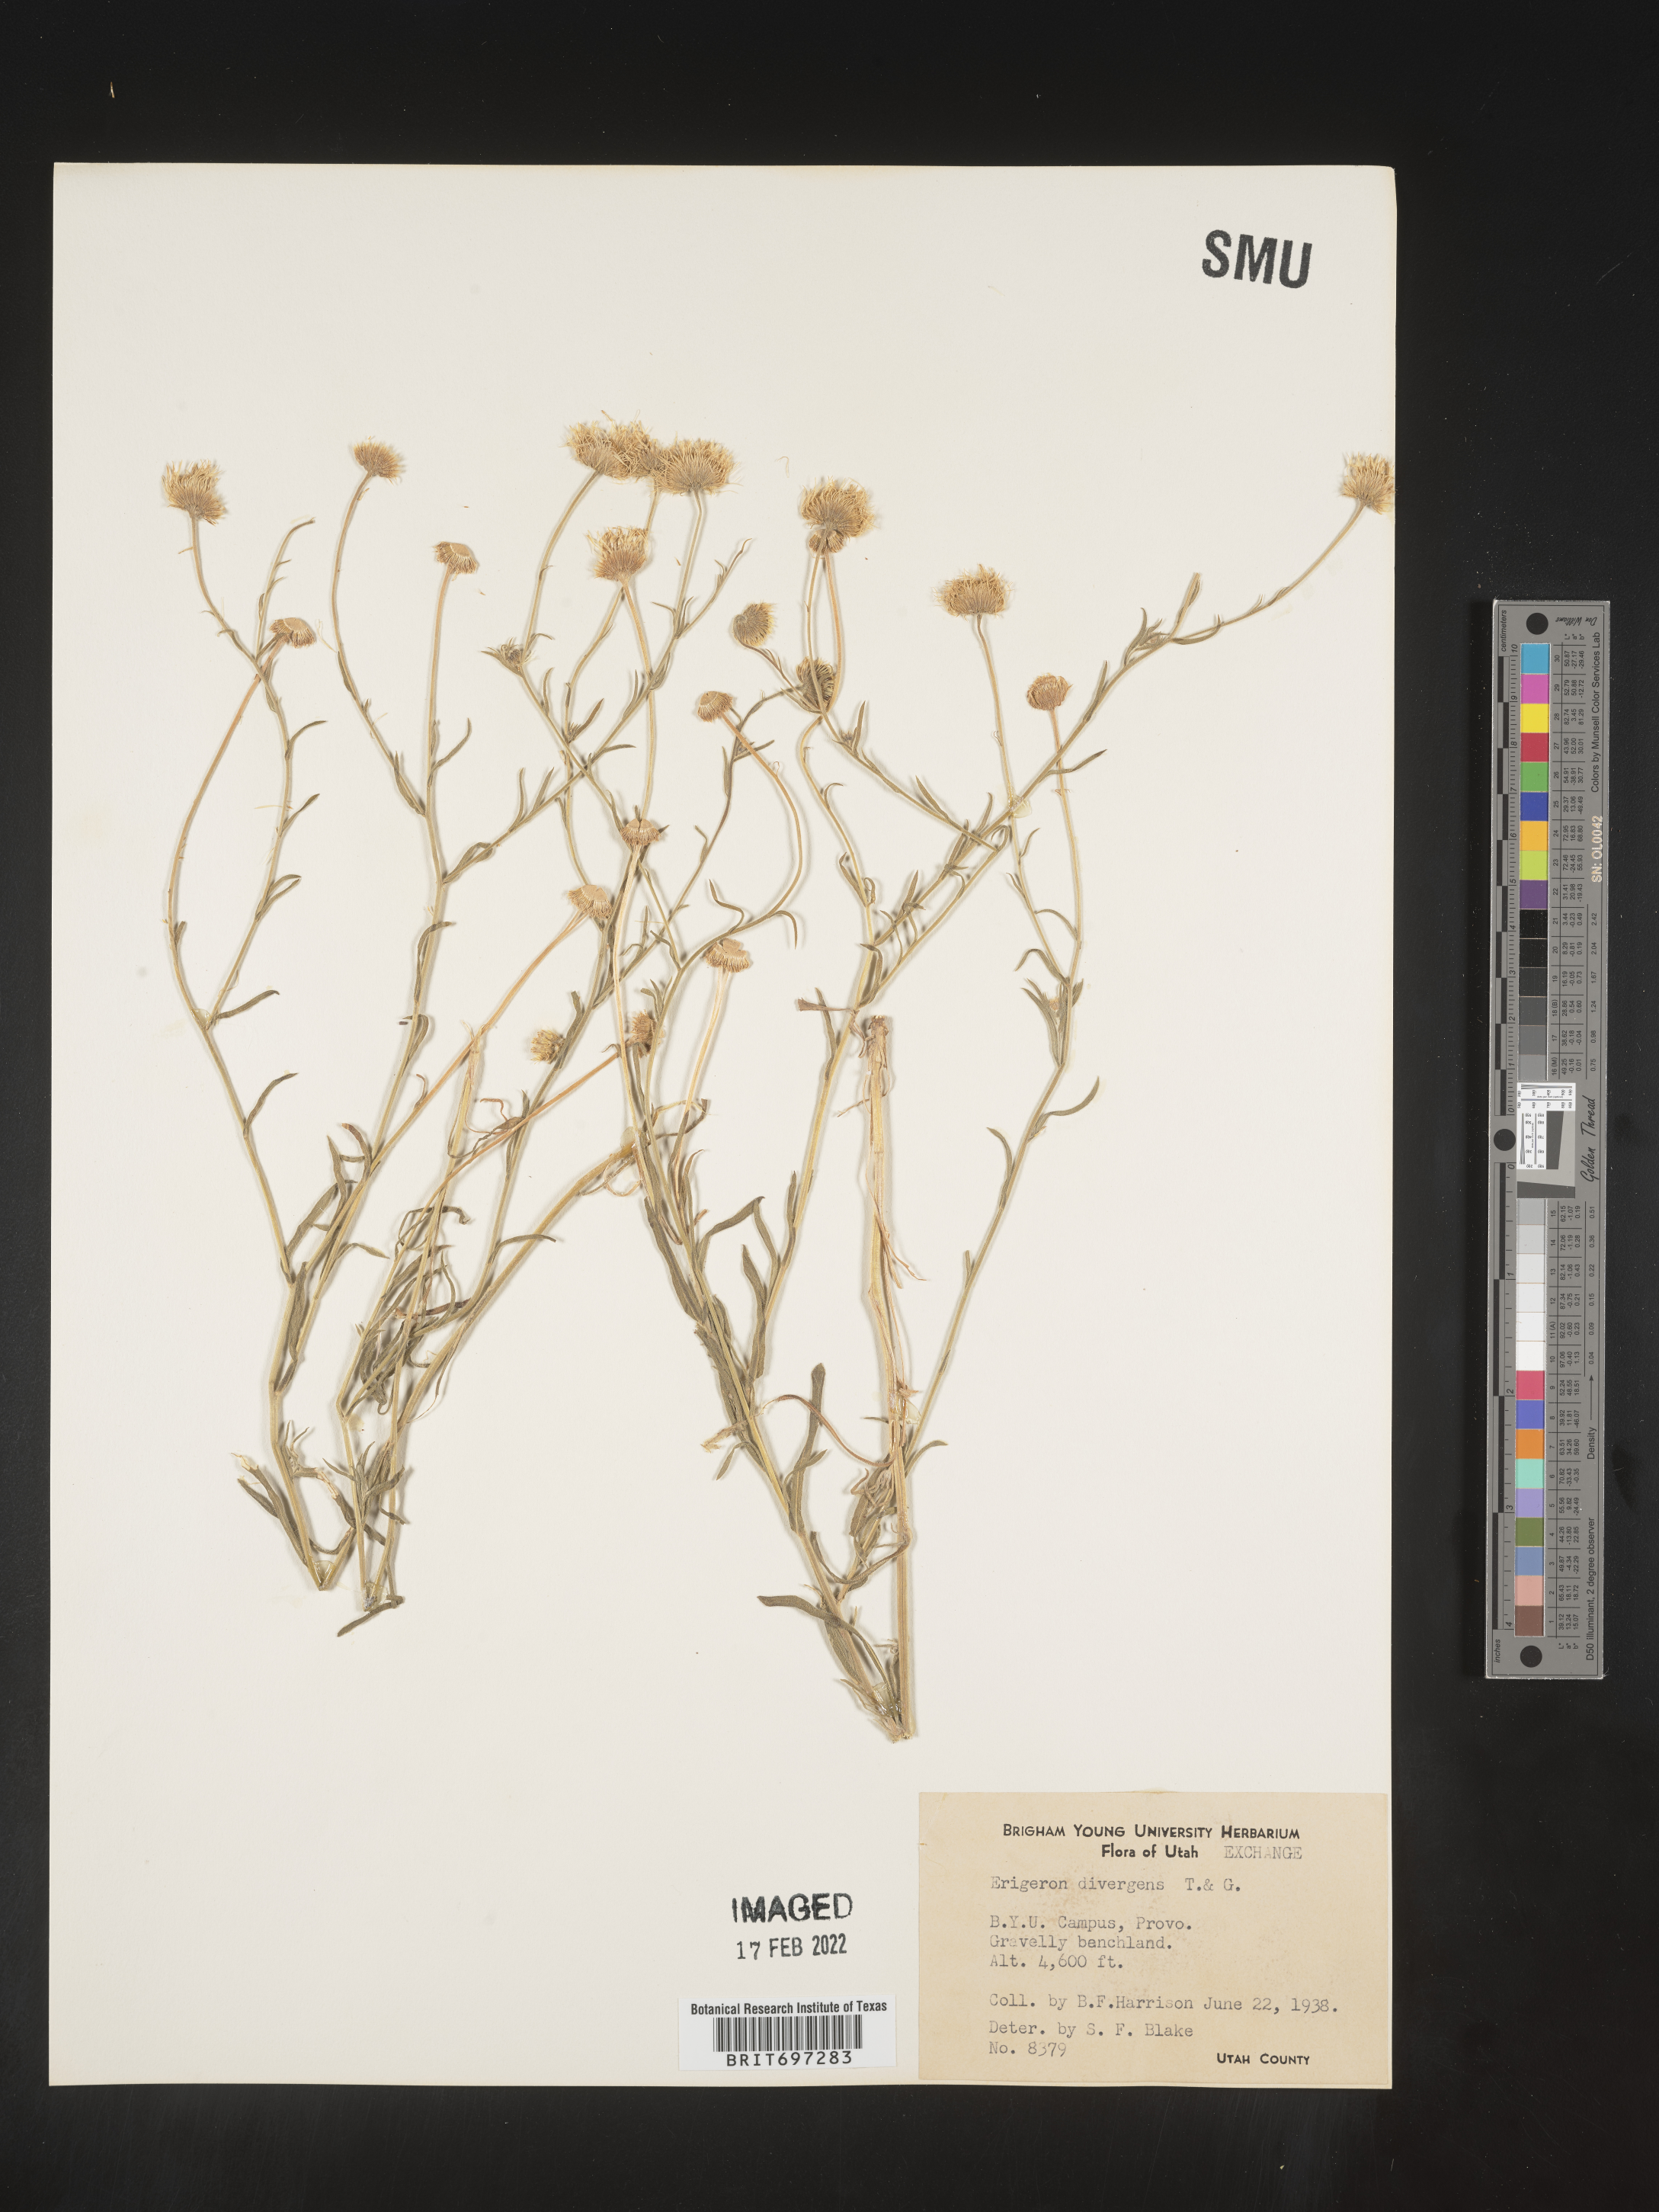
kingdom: Plantae
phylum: Tracheophyta
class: Magnoliopsida
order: Asterales
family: Asteraceae
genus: Erigeron
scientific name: Erigeron divergens
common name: Diffuse fleabane
